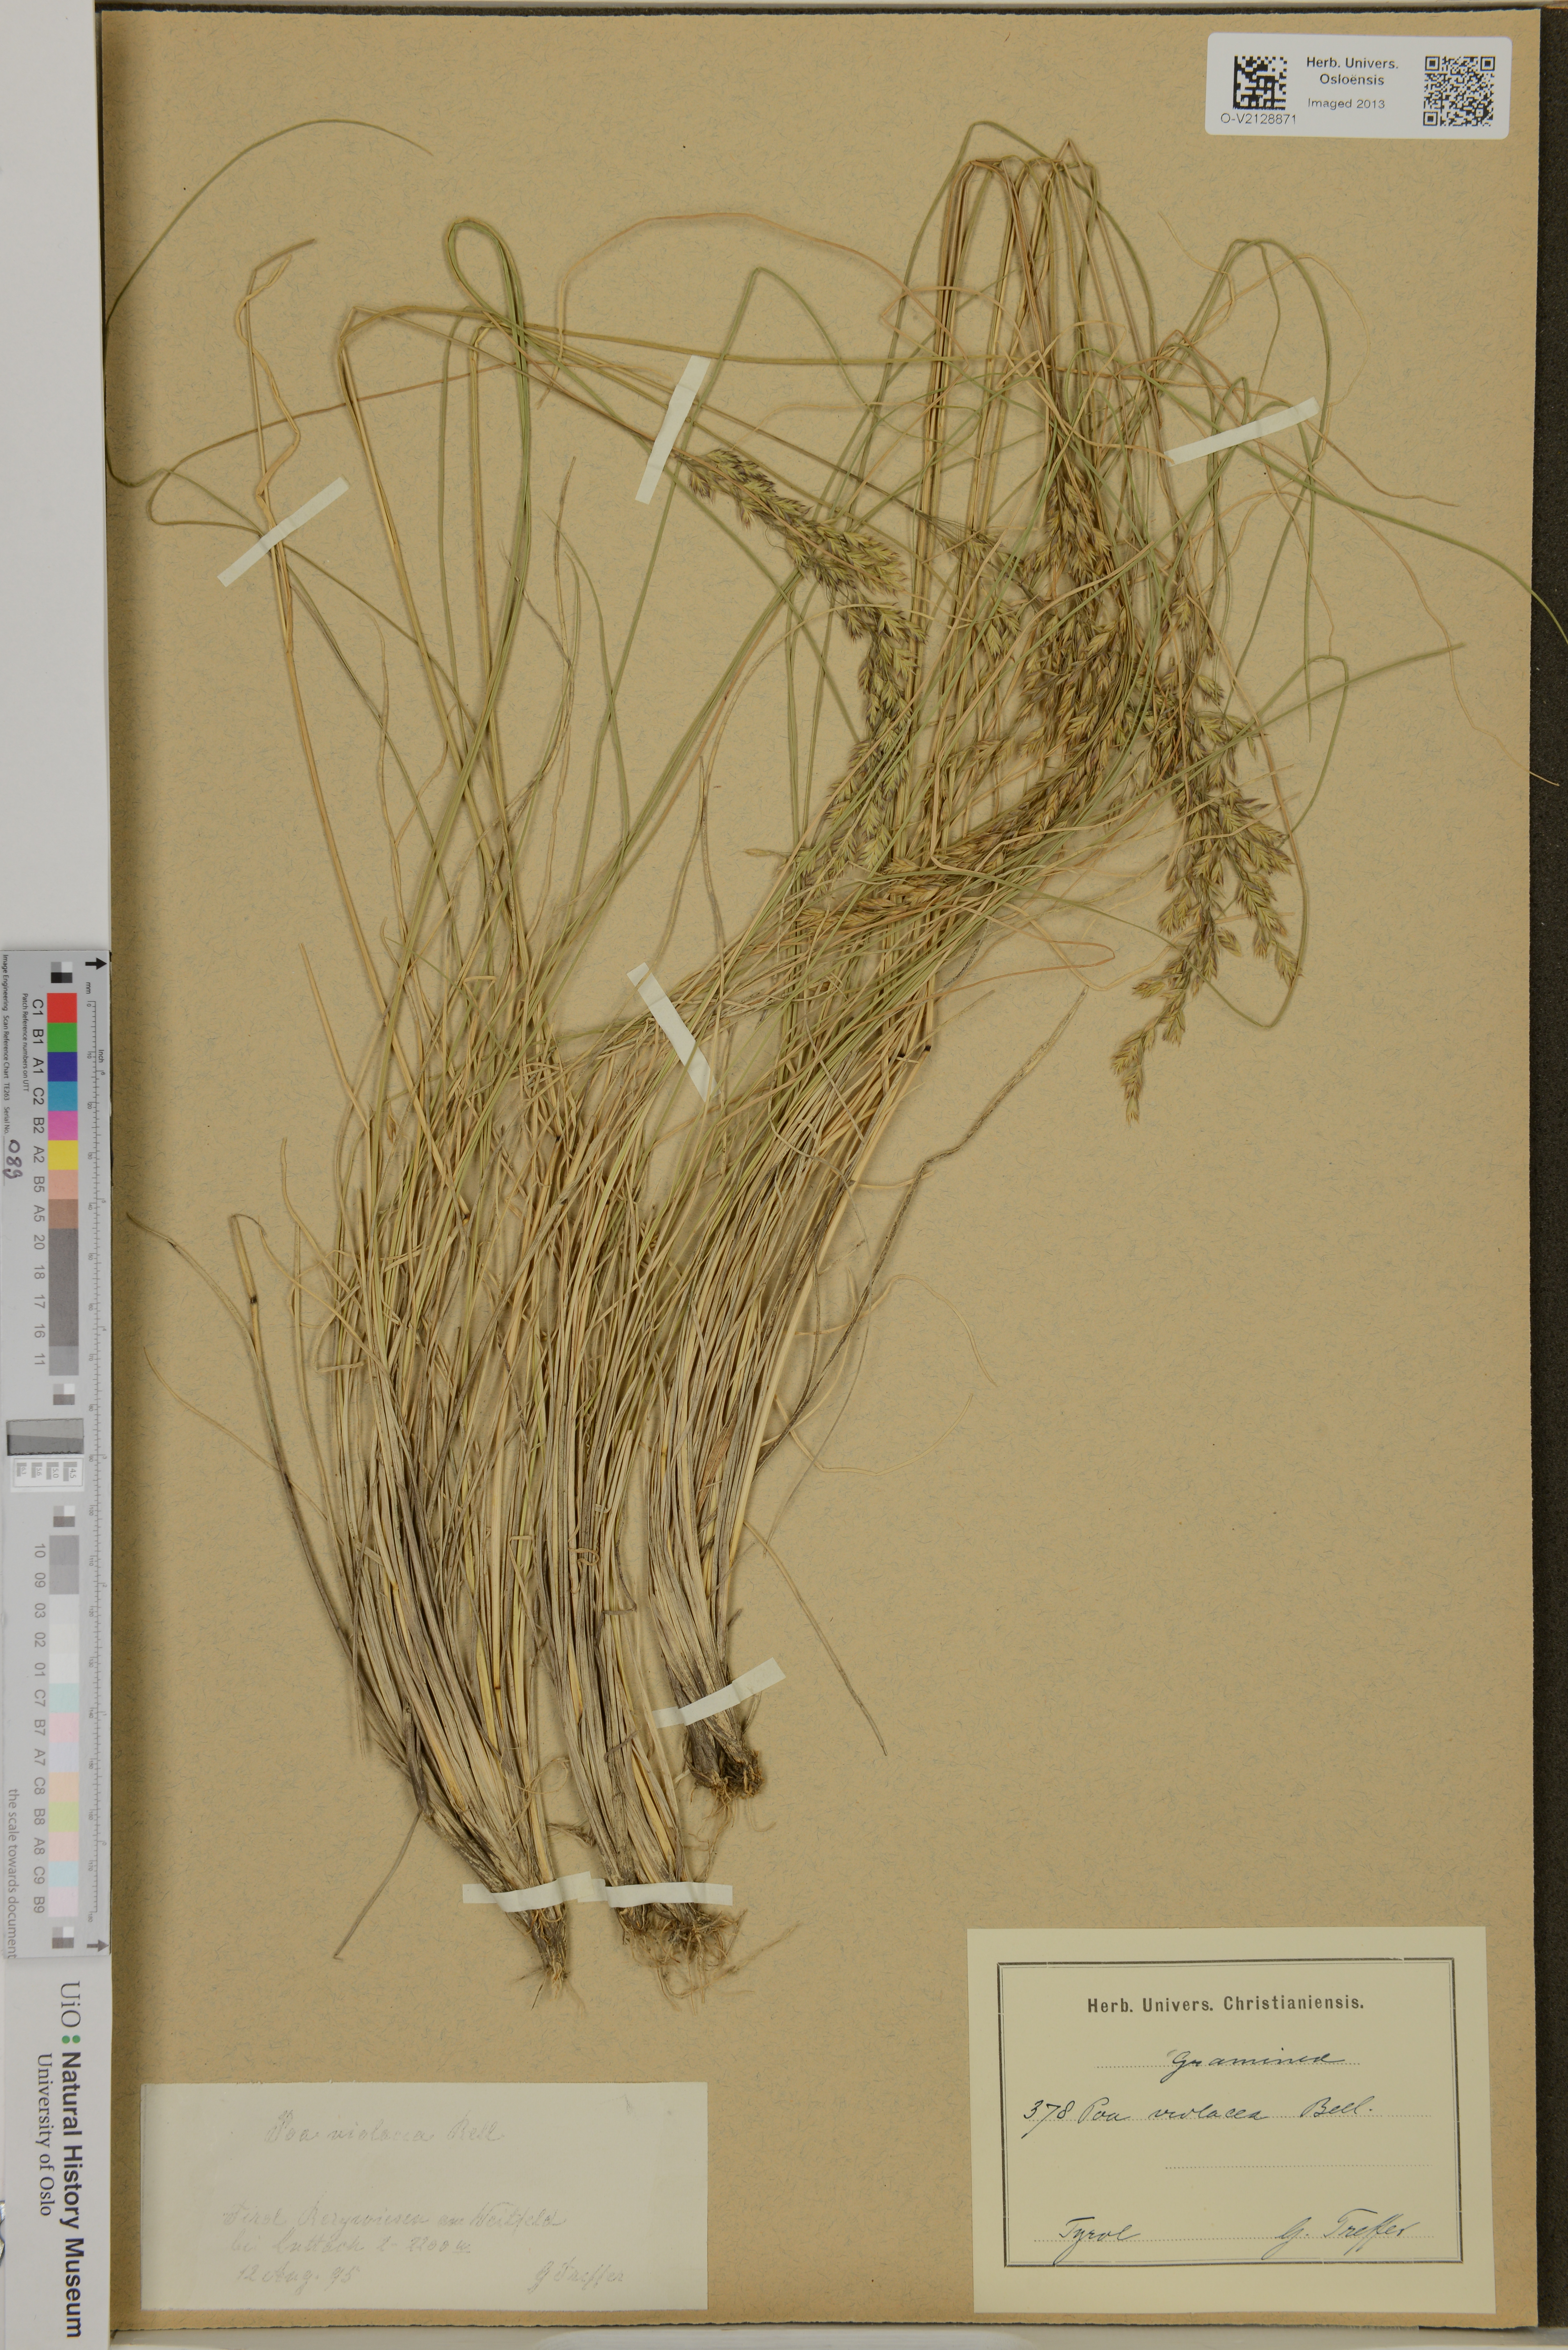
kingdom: Plantae
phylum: Tracheophyta
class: Liliopsida
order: Poales
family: Poaceae
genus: Bellardiochloa
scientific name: Bellardiochloa variegata
